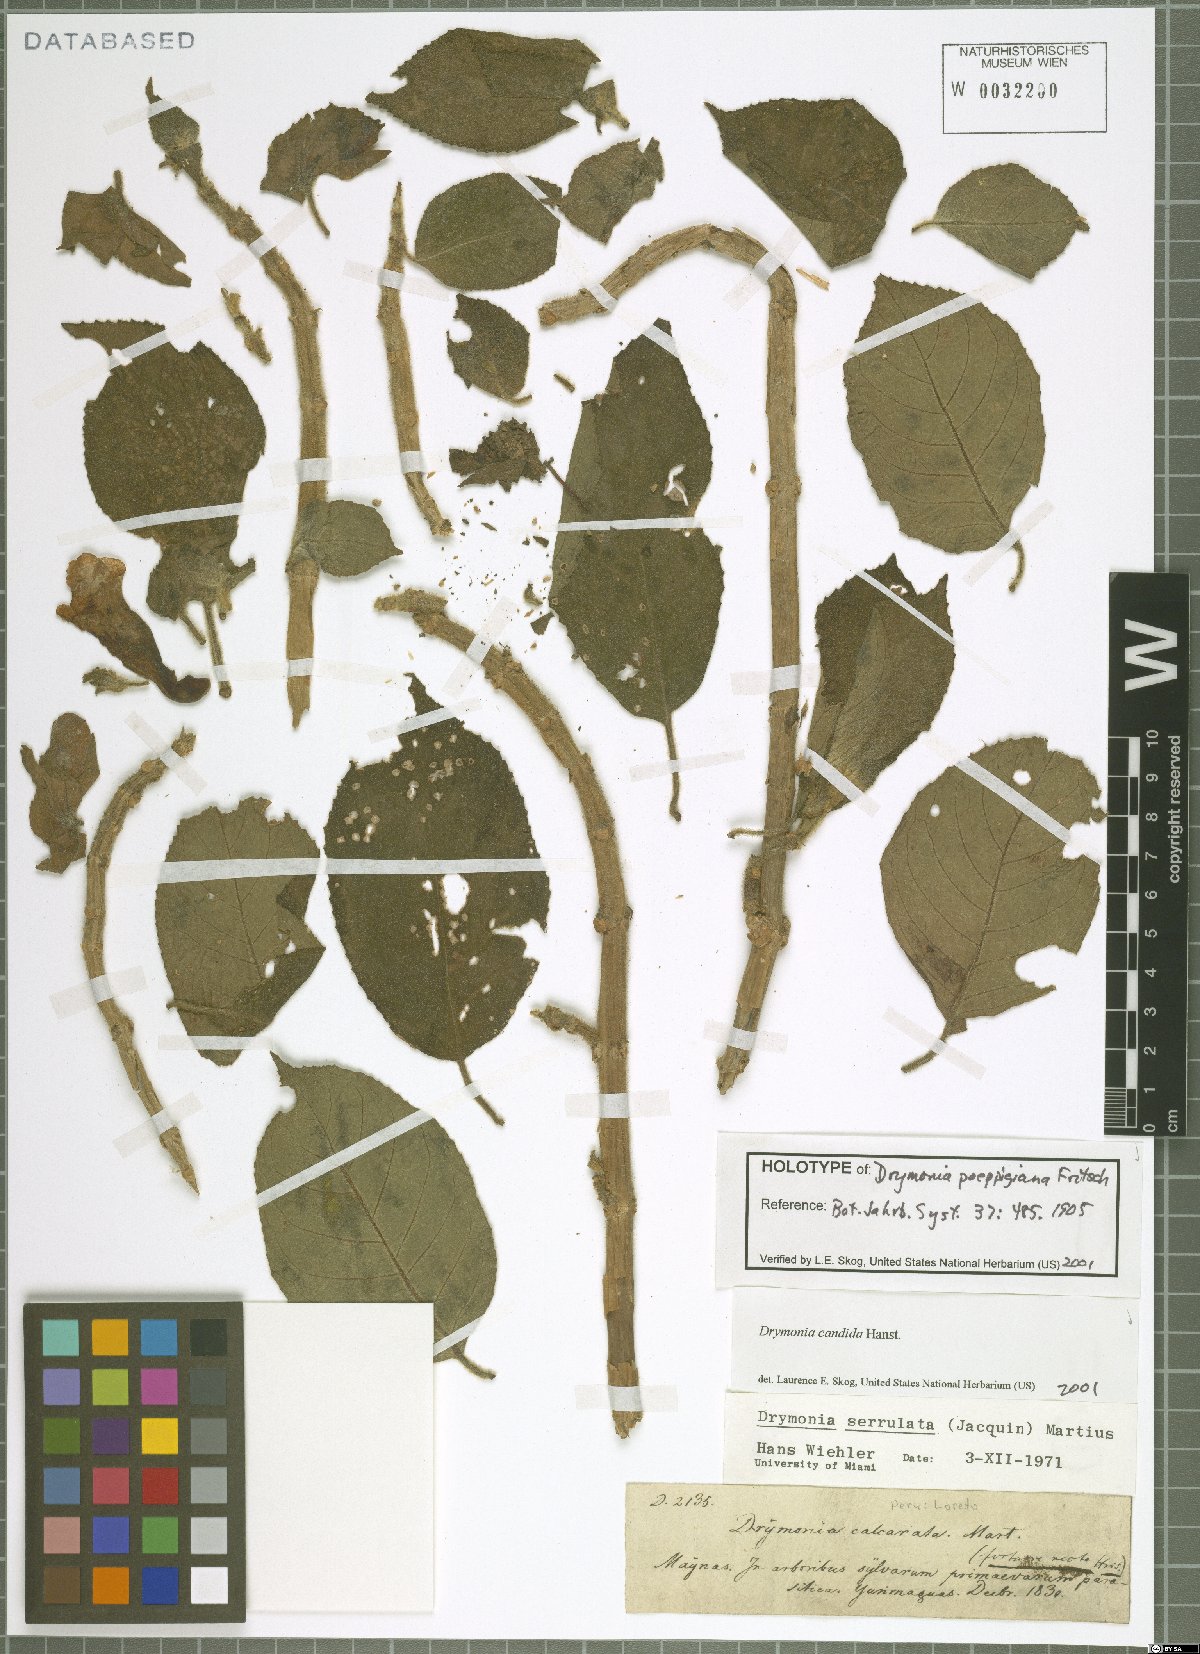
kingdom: Plantae
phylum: Tracheophyta
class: Magnoliopsida
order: Lamiales
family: Gesneriaceae
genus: Drymonia
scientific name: Drymonia candida
